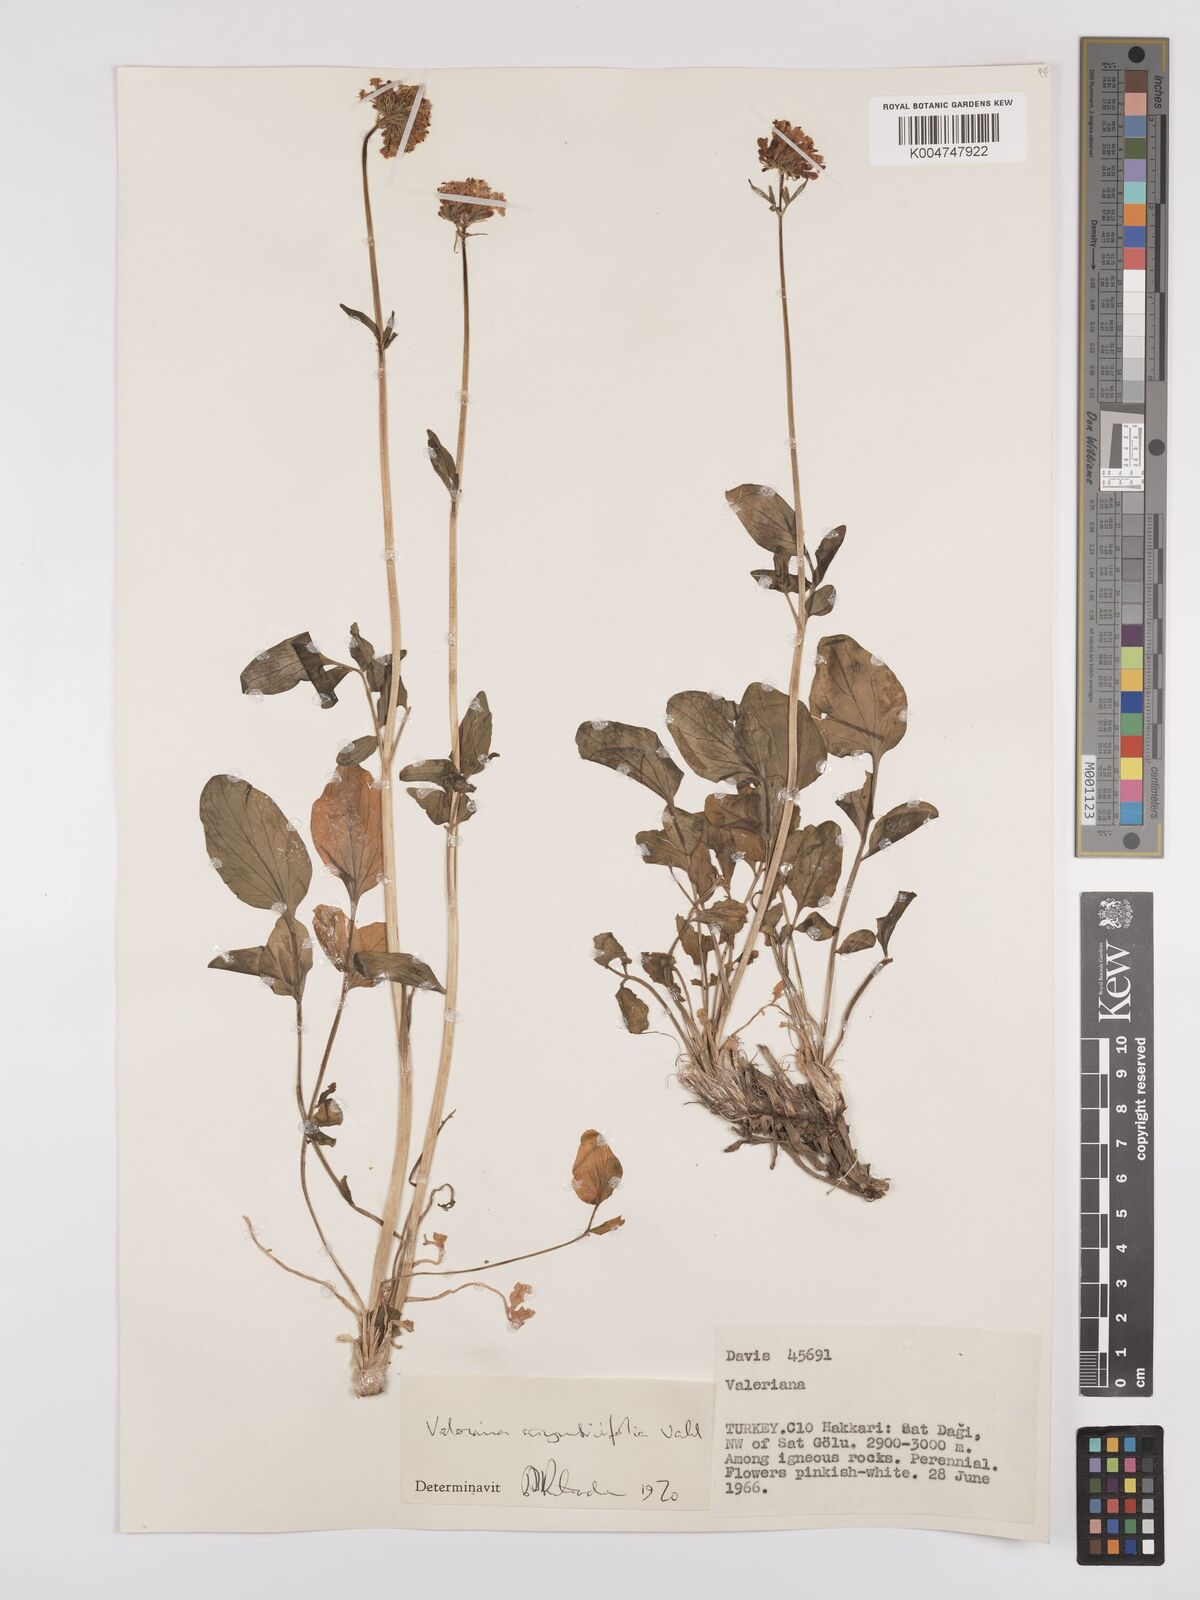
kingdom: Plantae
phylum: Tracheophyta
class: Magnoliopsida
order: Dipsacales
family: Caprifoliaceae
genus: Valeriana
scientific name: Valeriana
